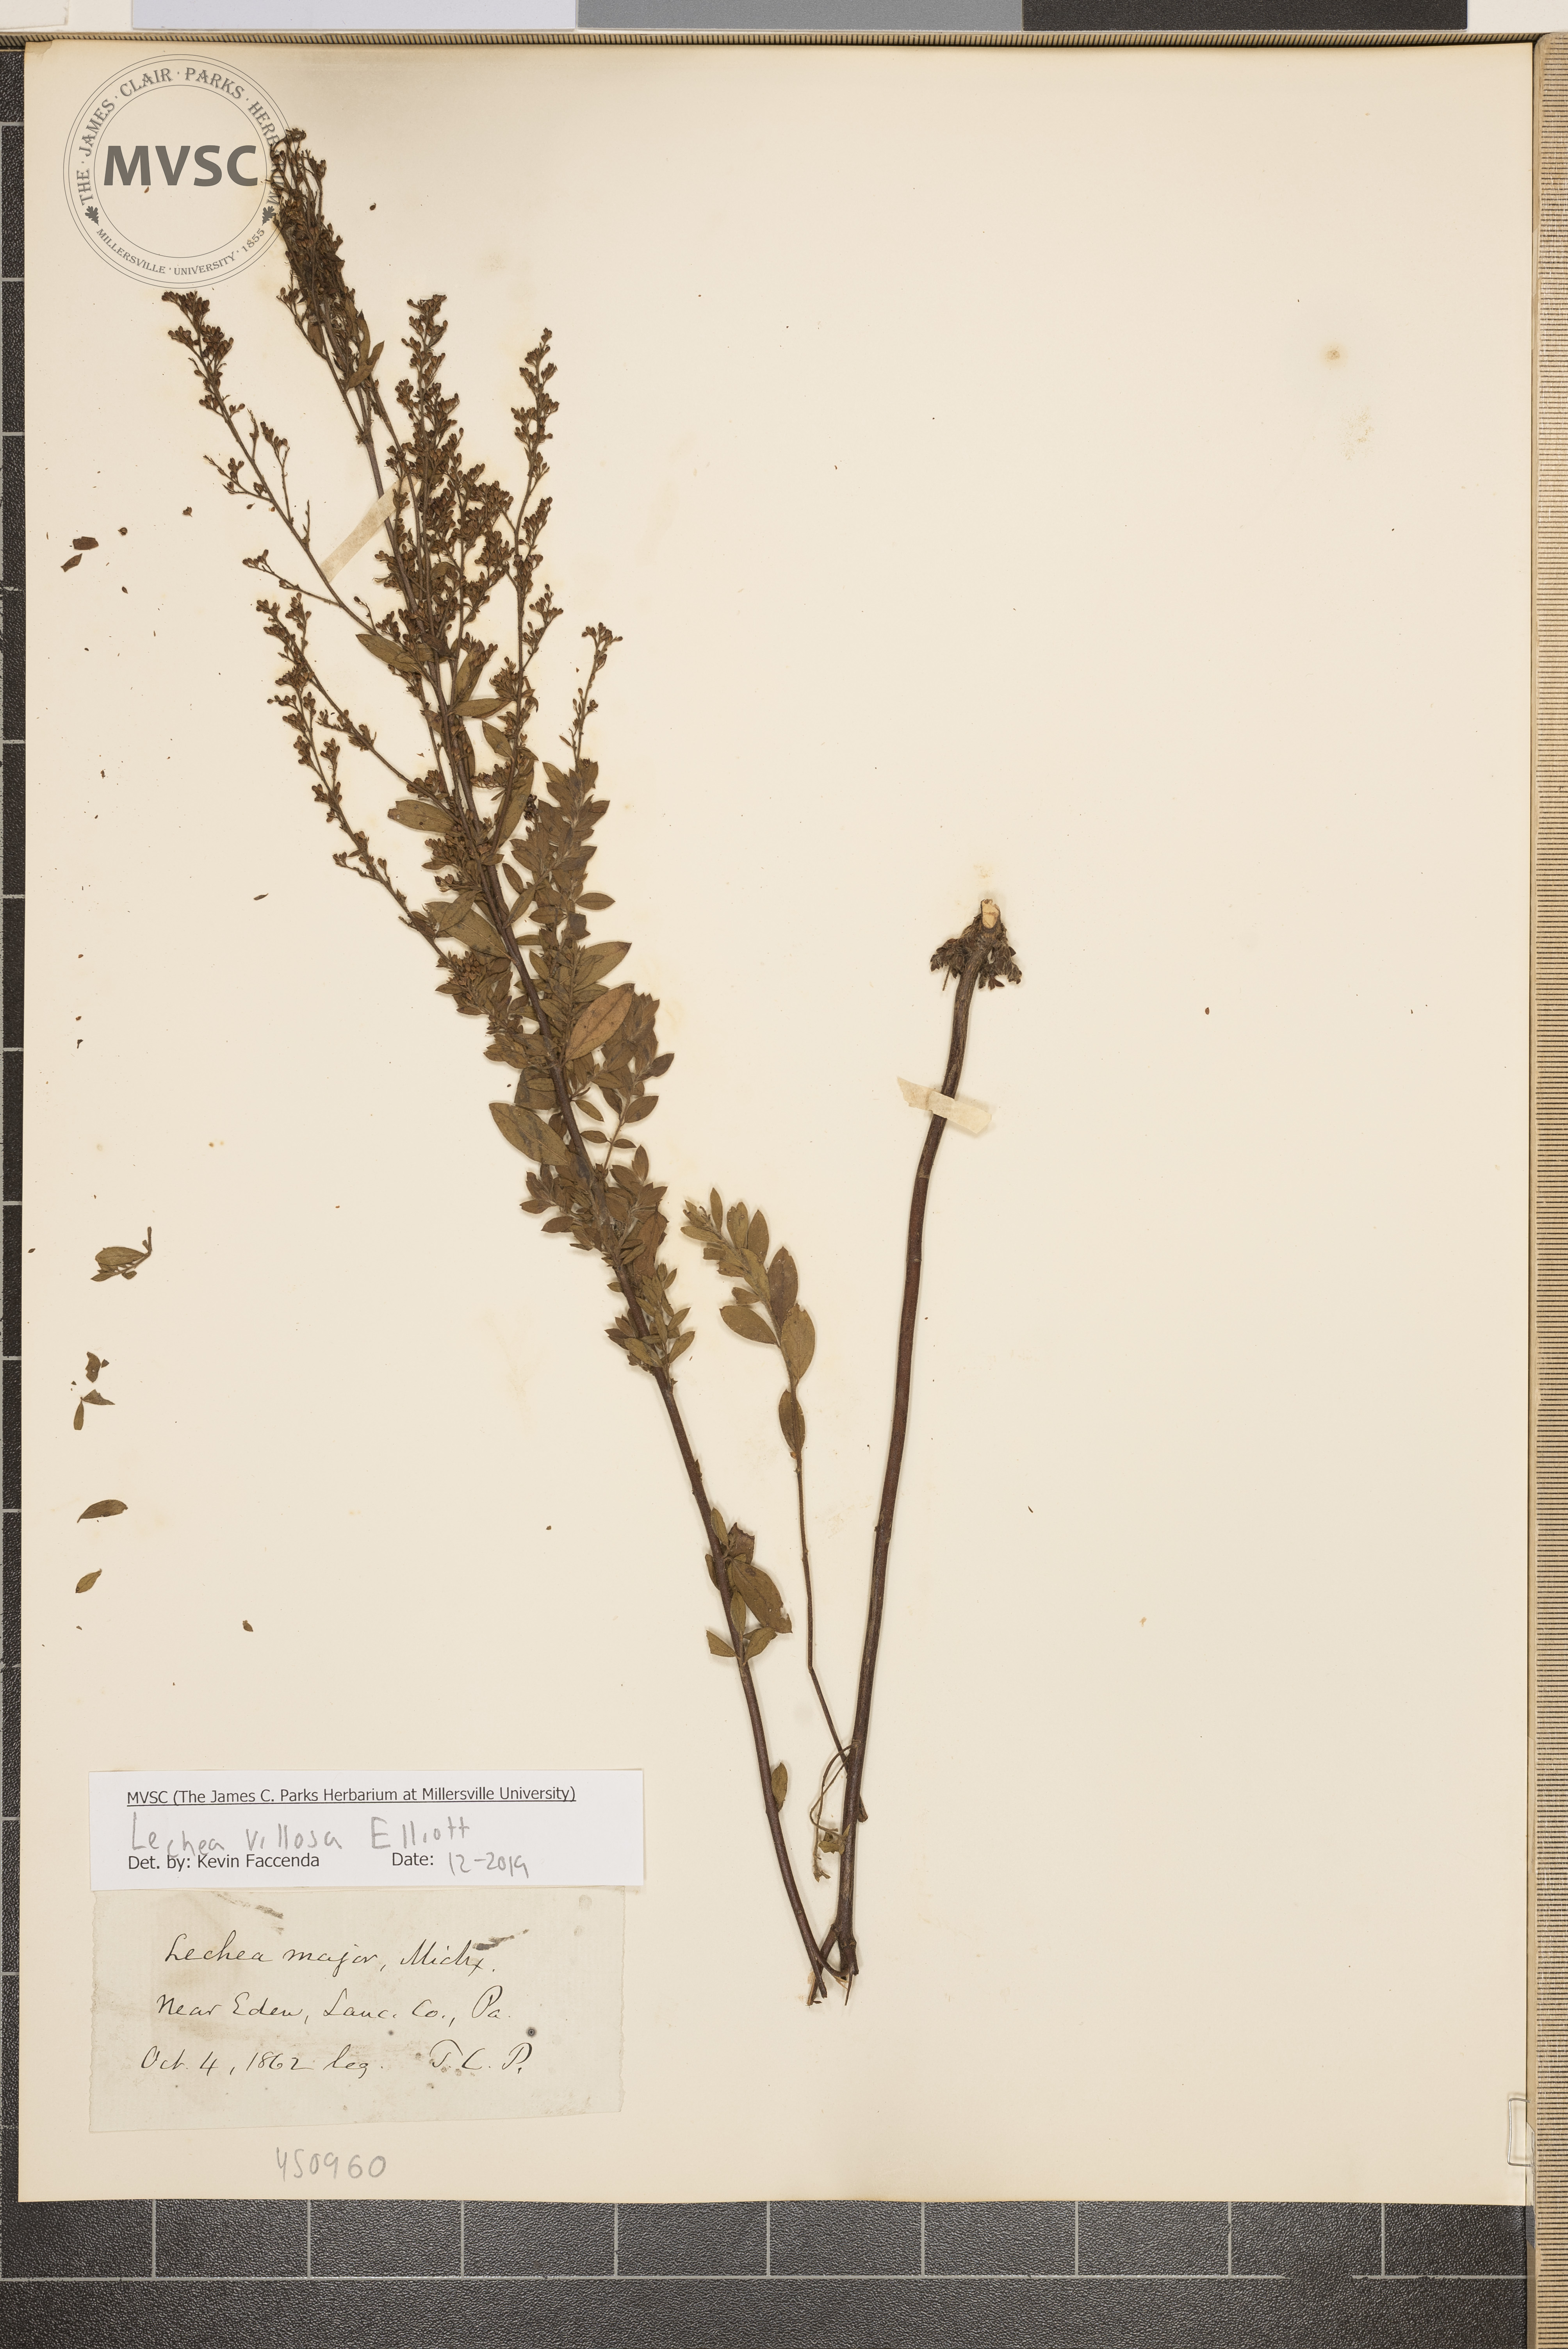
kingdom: Plantae
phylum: Tracheophyta
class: Magnoliopsida
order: Malvales
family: Cistaceae
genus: Lechea
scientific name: Lechea mucronata
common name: Hairy pinweed
